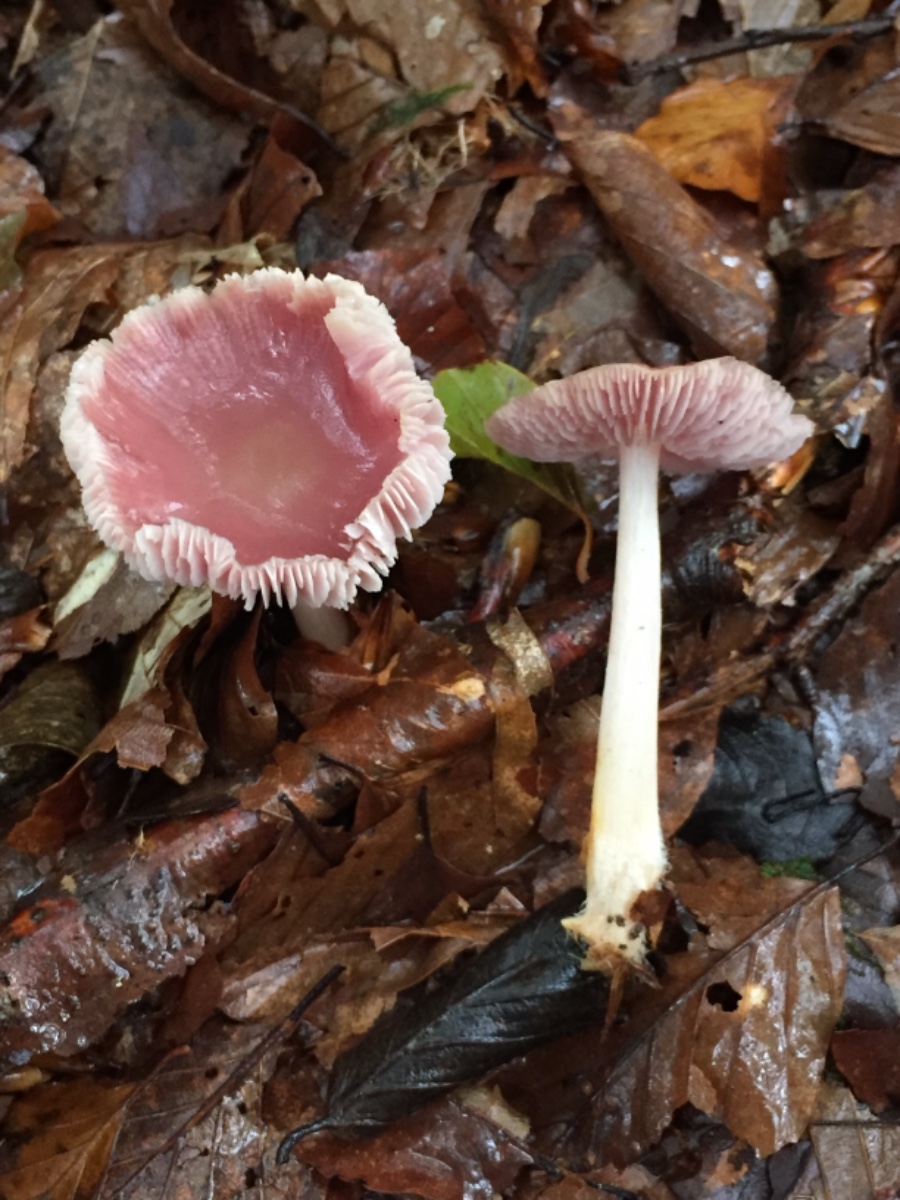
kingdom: Fungi
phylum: Basidiomycota
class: Agaricomycetes
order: Agaricales
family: Mycenaceae
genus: Mycena
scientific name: Mycena rosea
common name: rosa huesvamp
